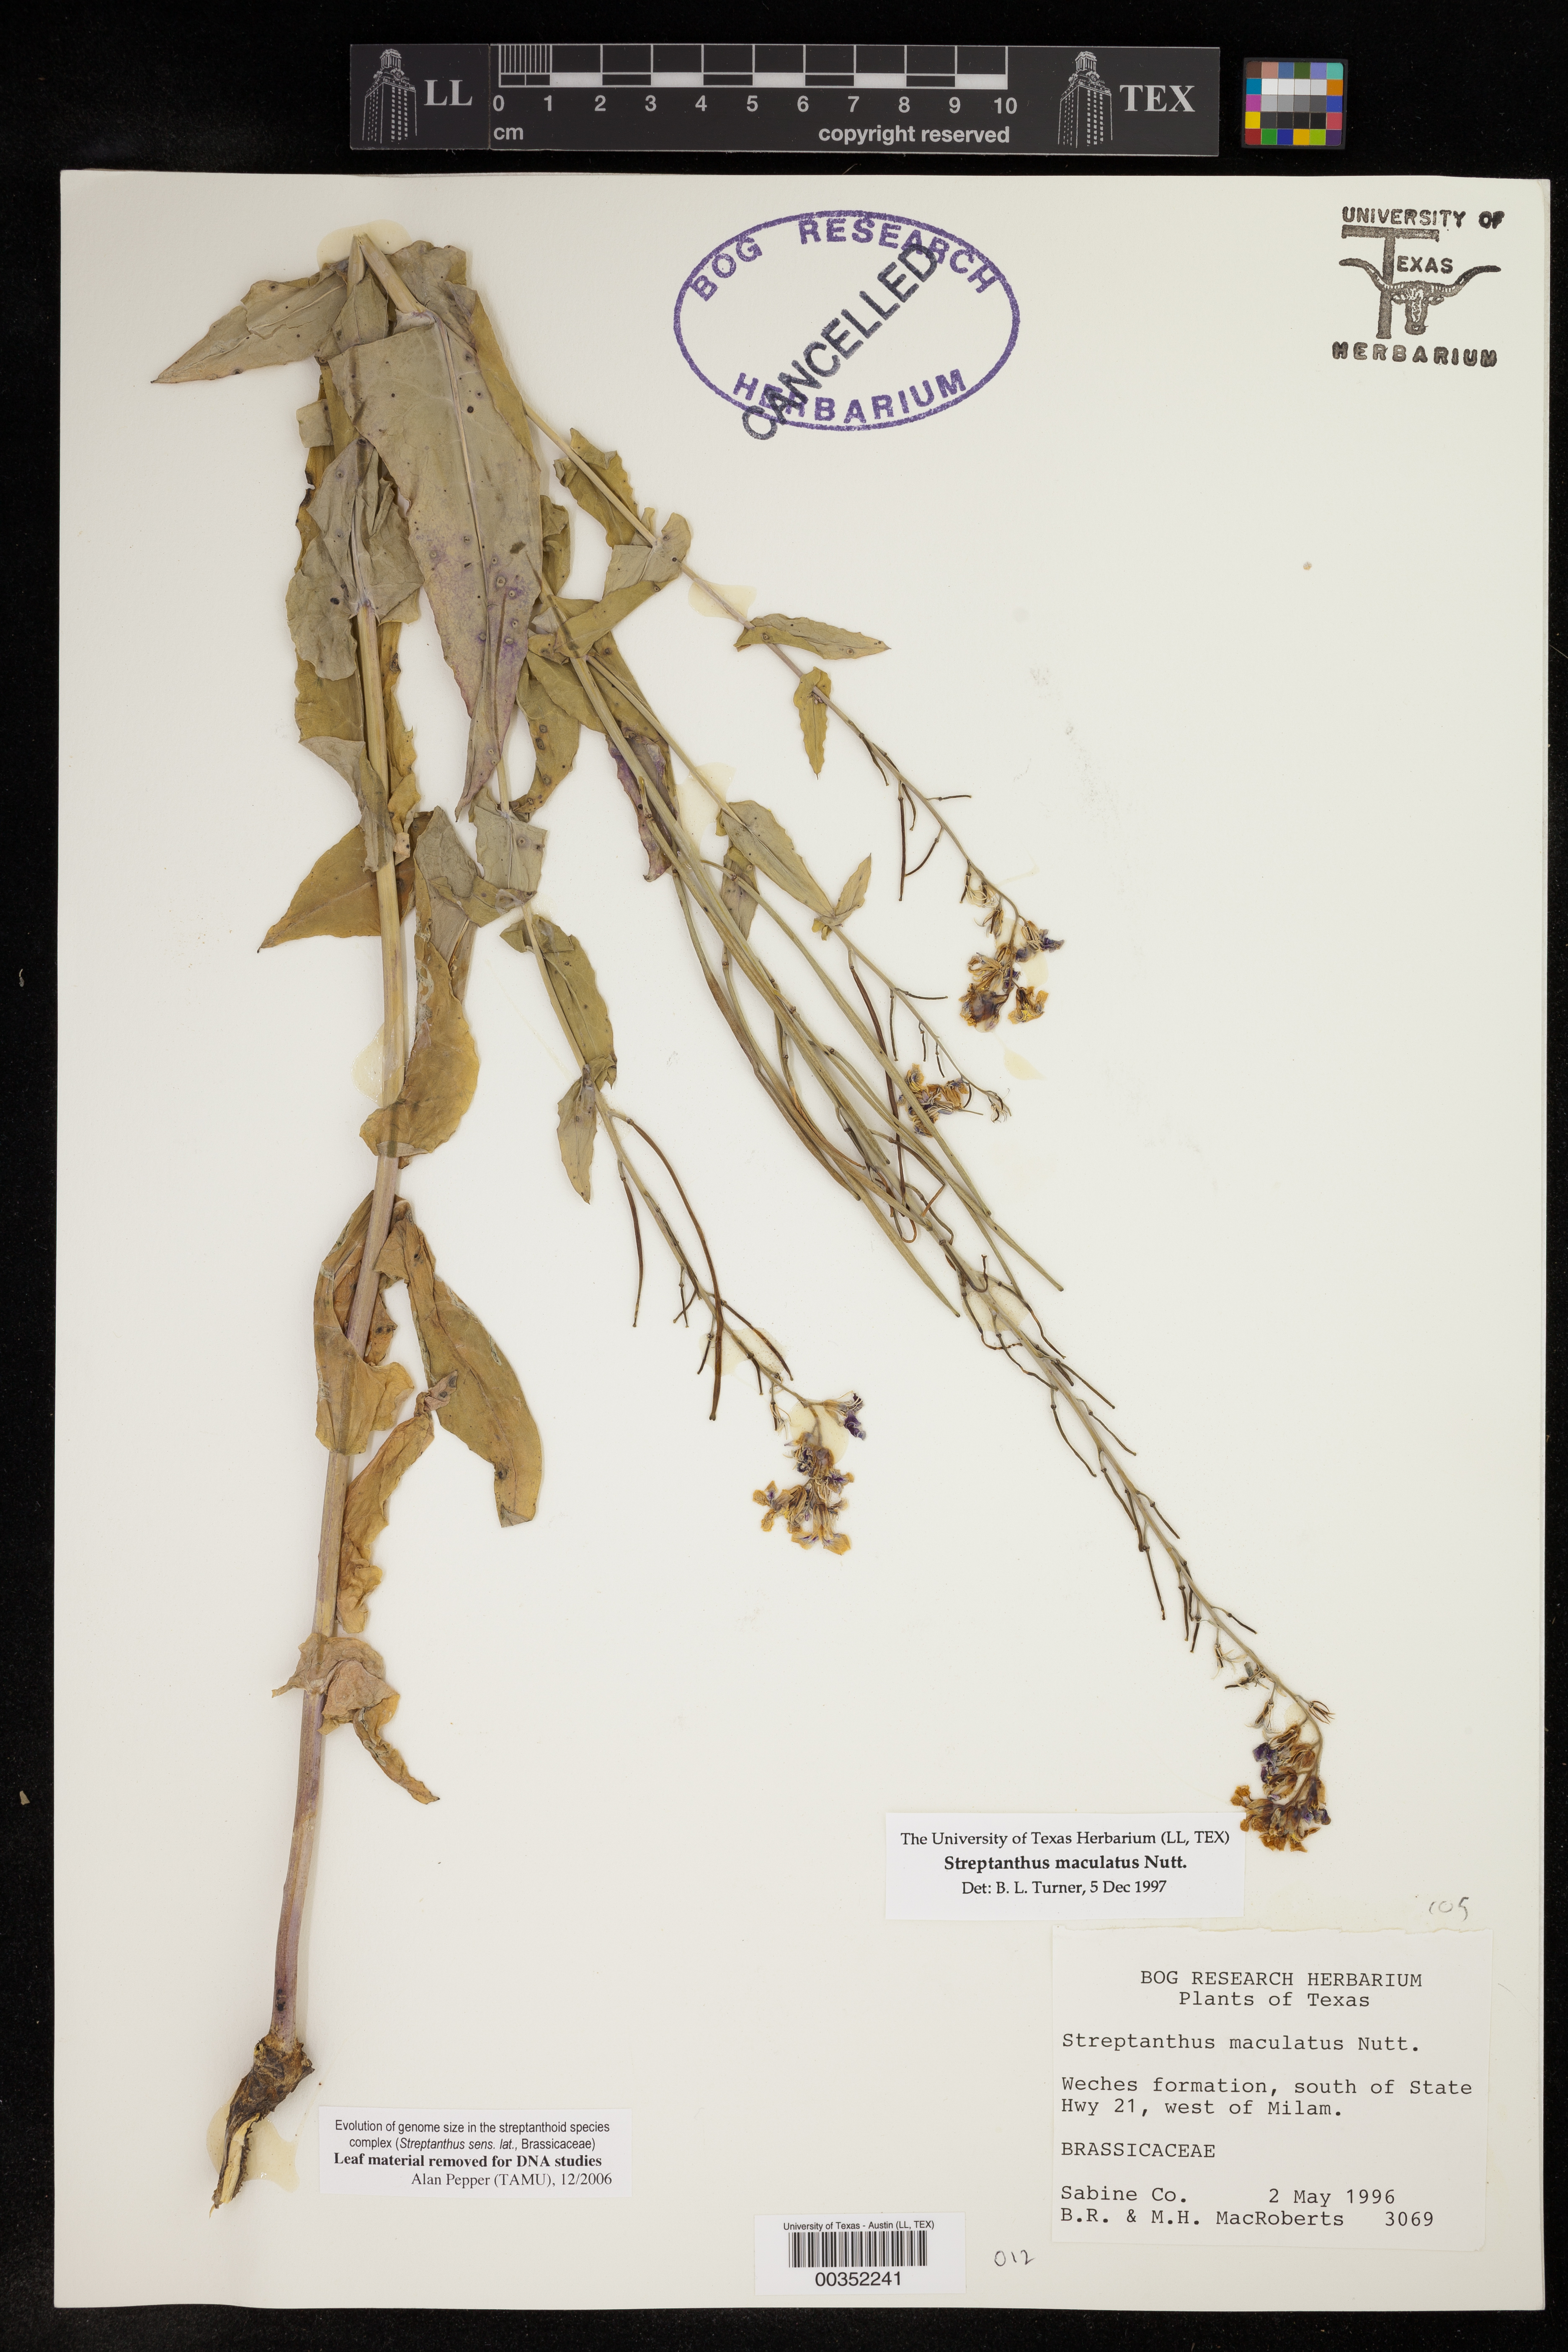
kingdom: Plantae
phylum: Tracheophyta
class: Magnoliopsida
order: Brassicales
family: Brassicaceae
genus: Streptanthus
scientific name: Streptanthus maculatus
